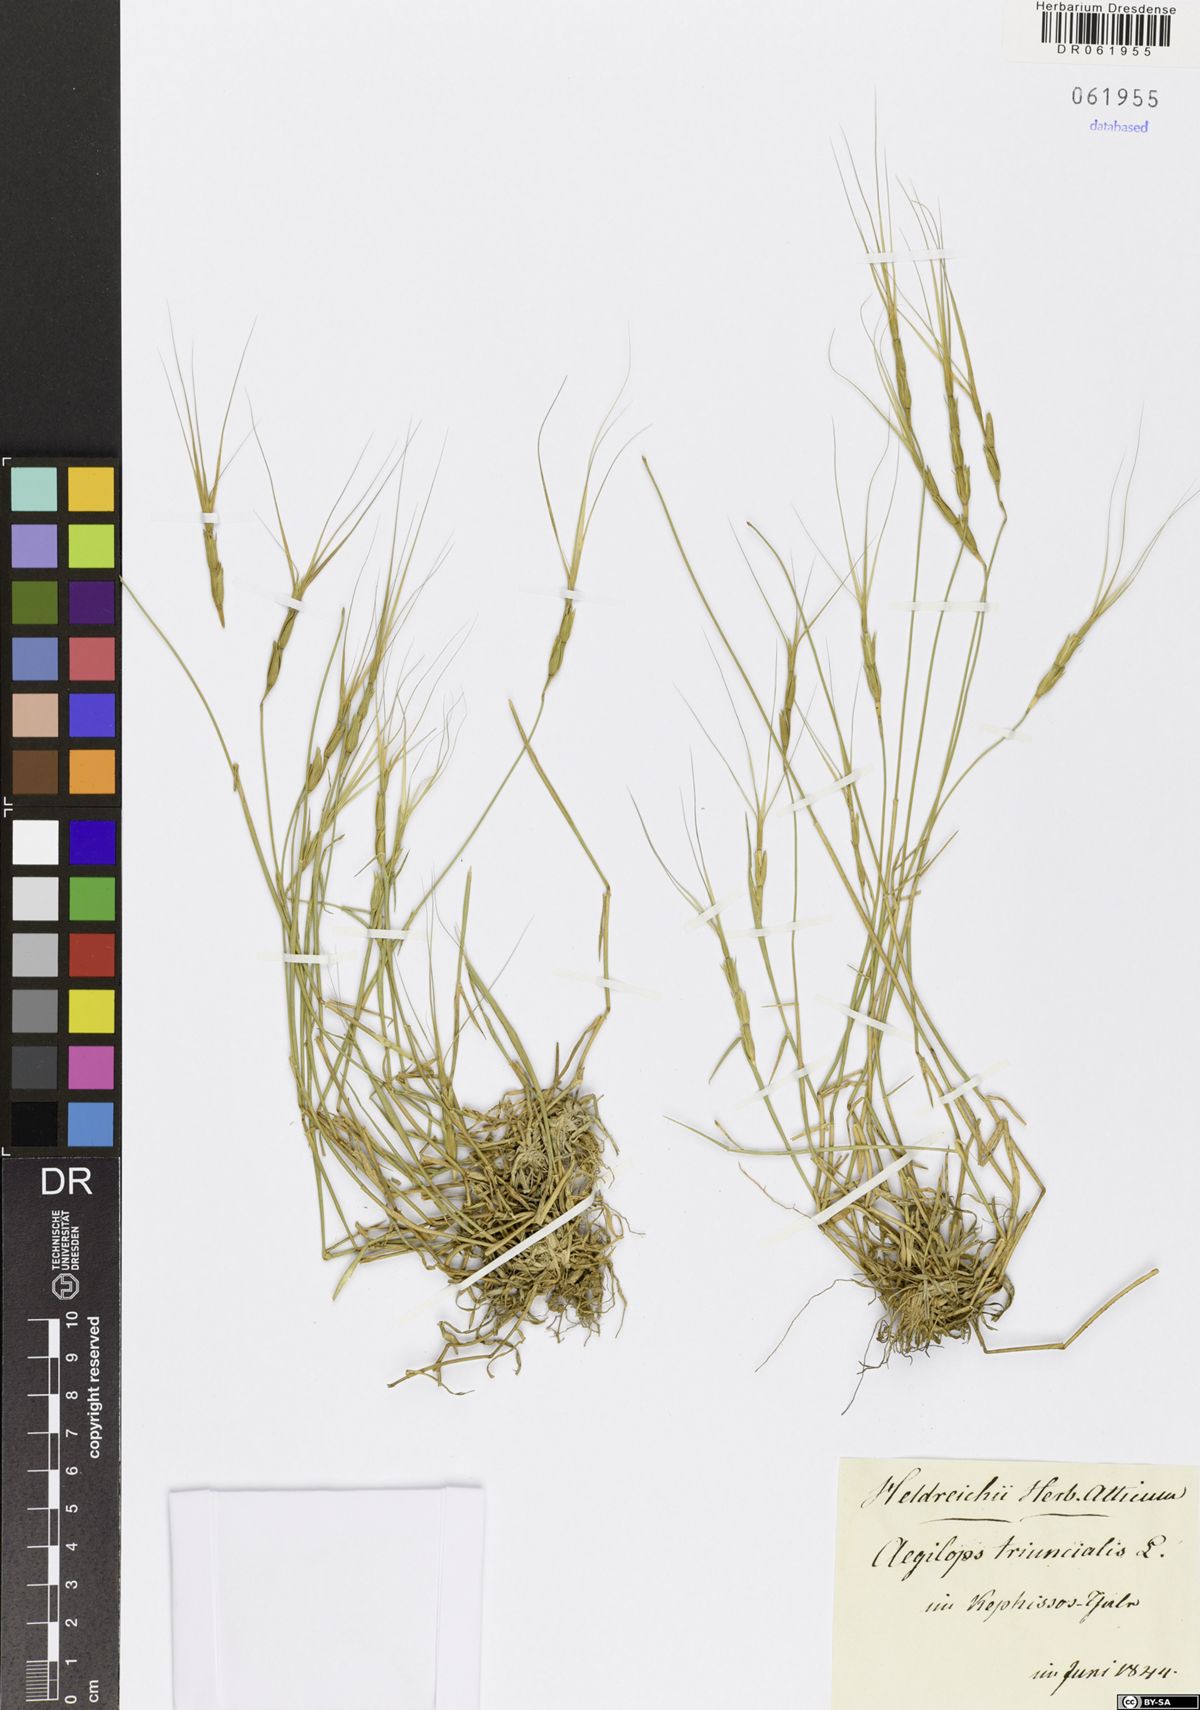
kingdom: Plantae
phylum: Tracheophyta
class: Liliopsida
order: Poales
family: Poaceae
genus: Aegilops
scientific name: Aegilops triuncialis
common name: Barb goat grass
